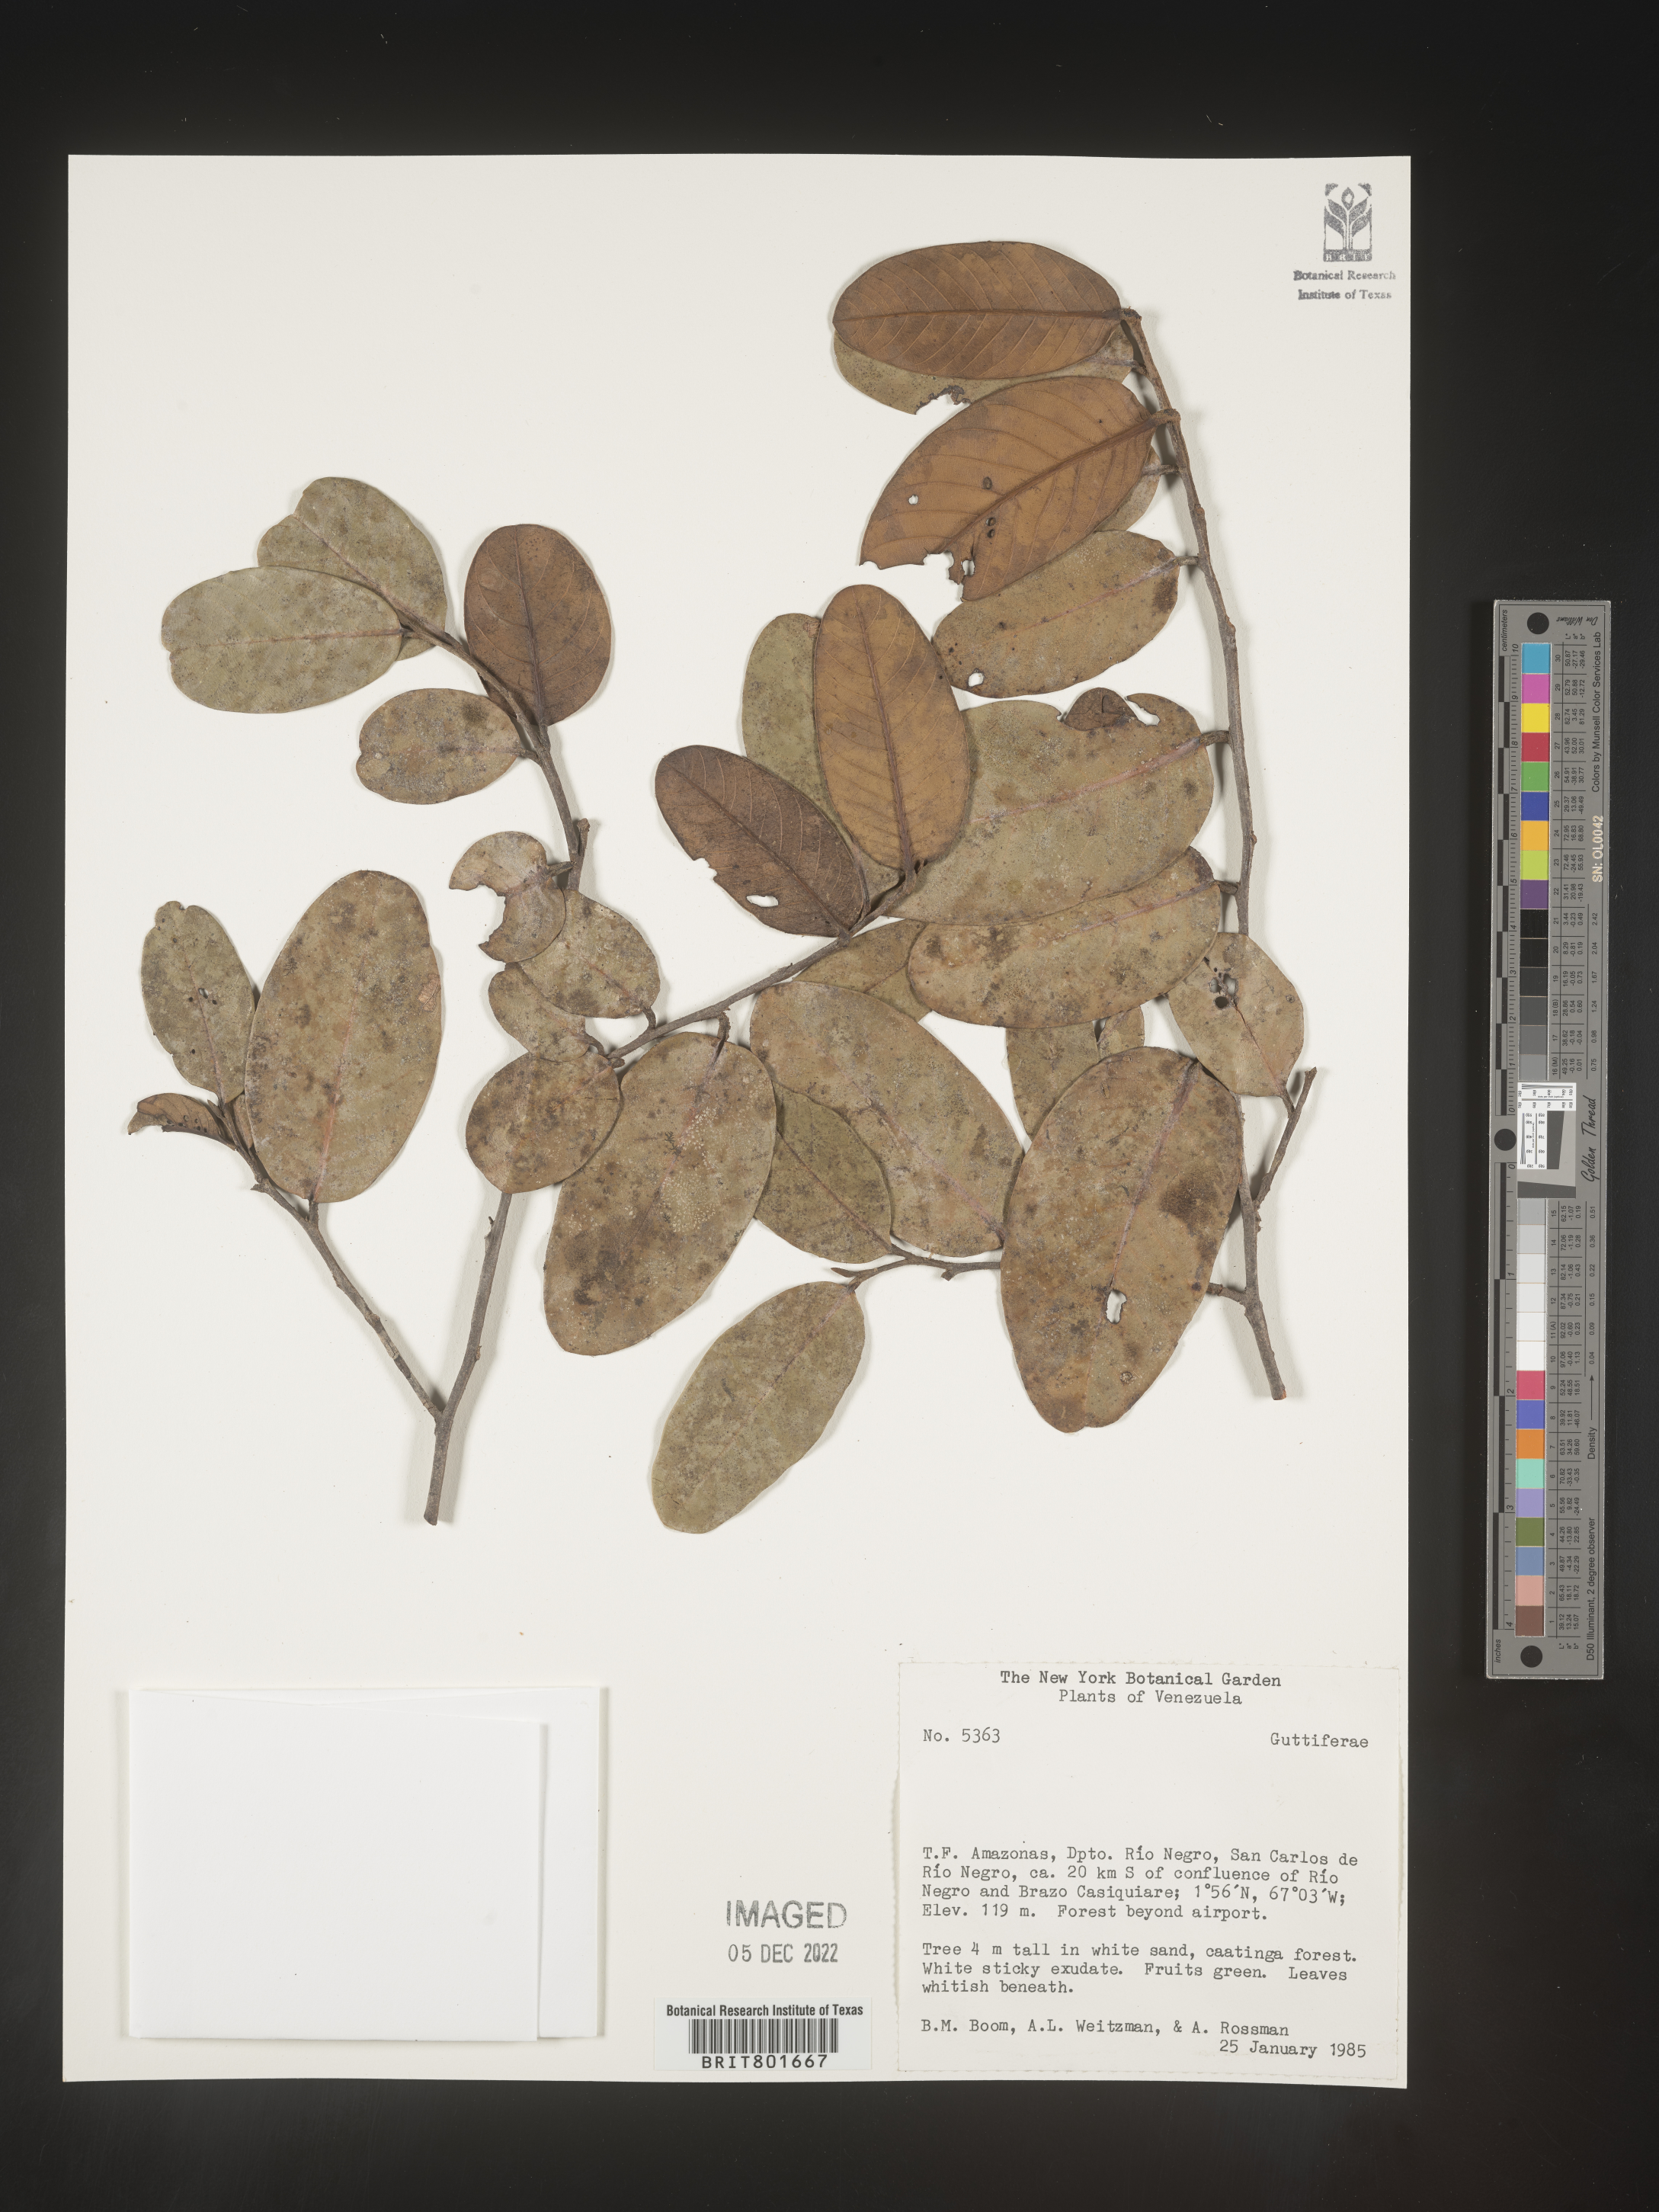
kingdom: Plantae
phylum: Tracheophyta
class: Magnoliopsida
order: Malpighiales
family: Clusiaceae
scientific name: Clusiaceae
